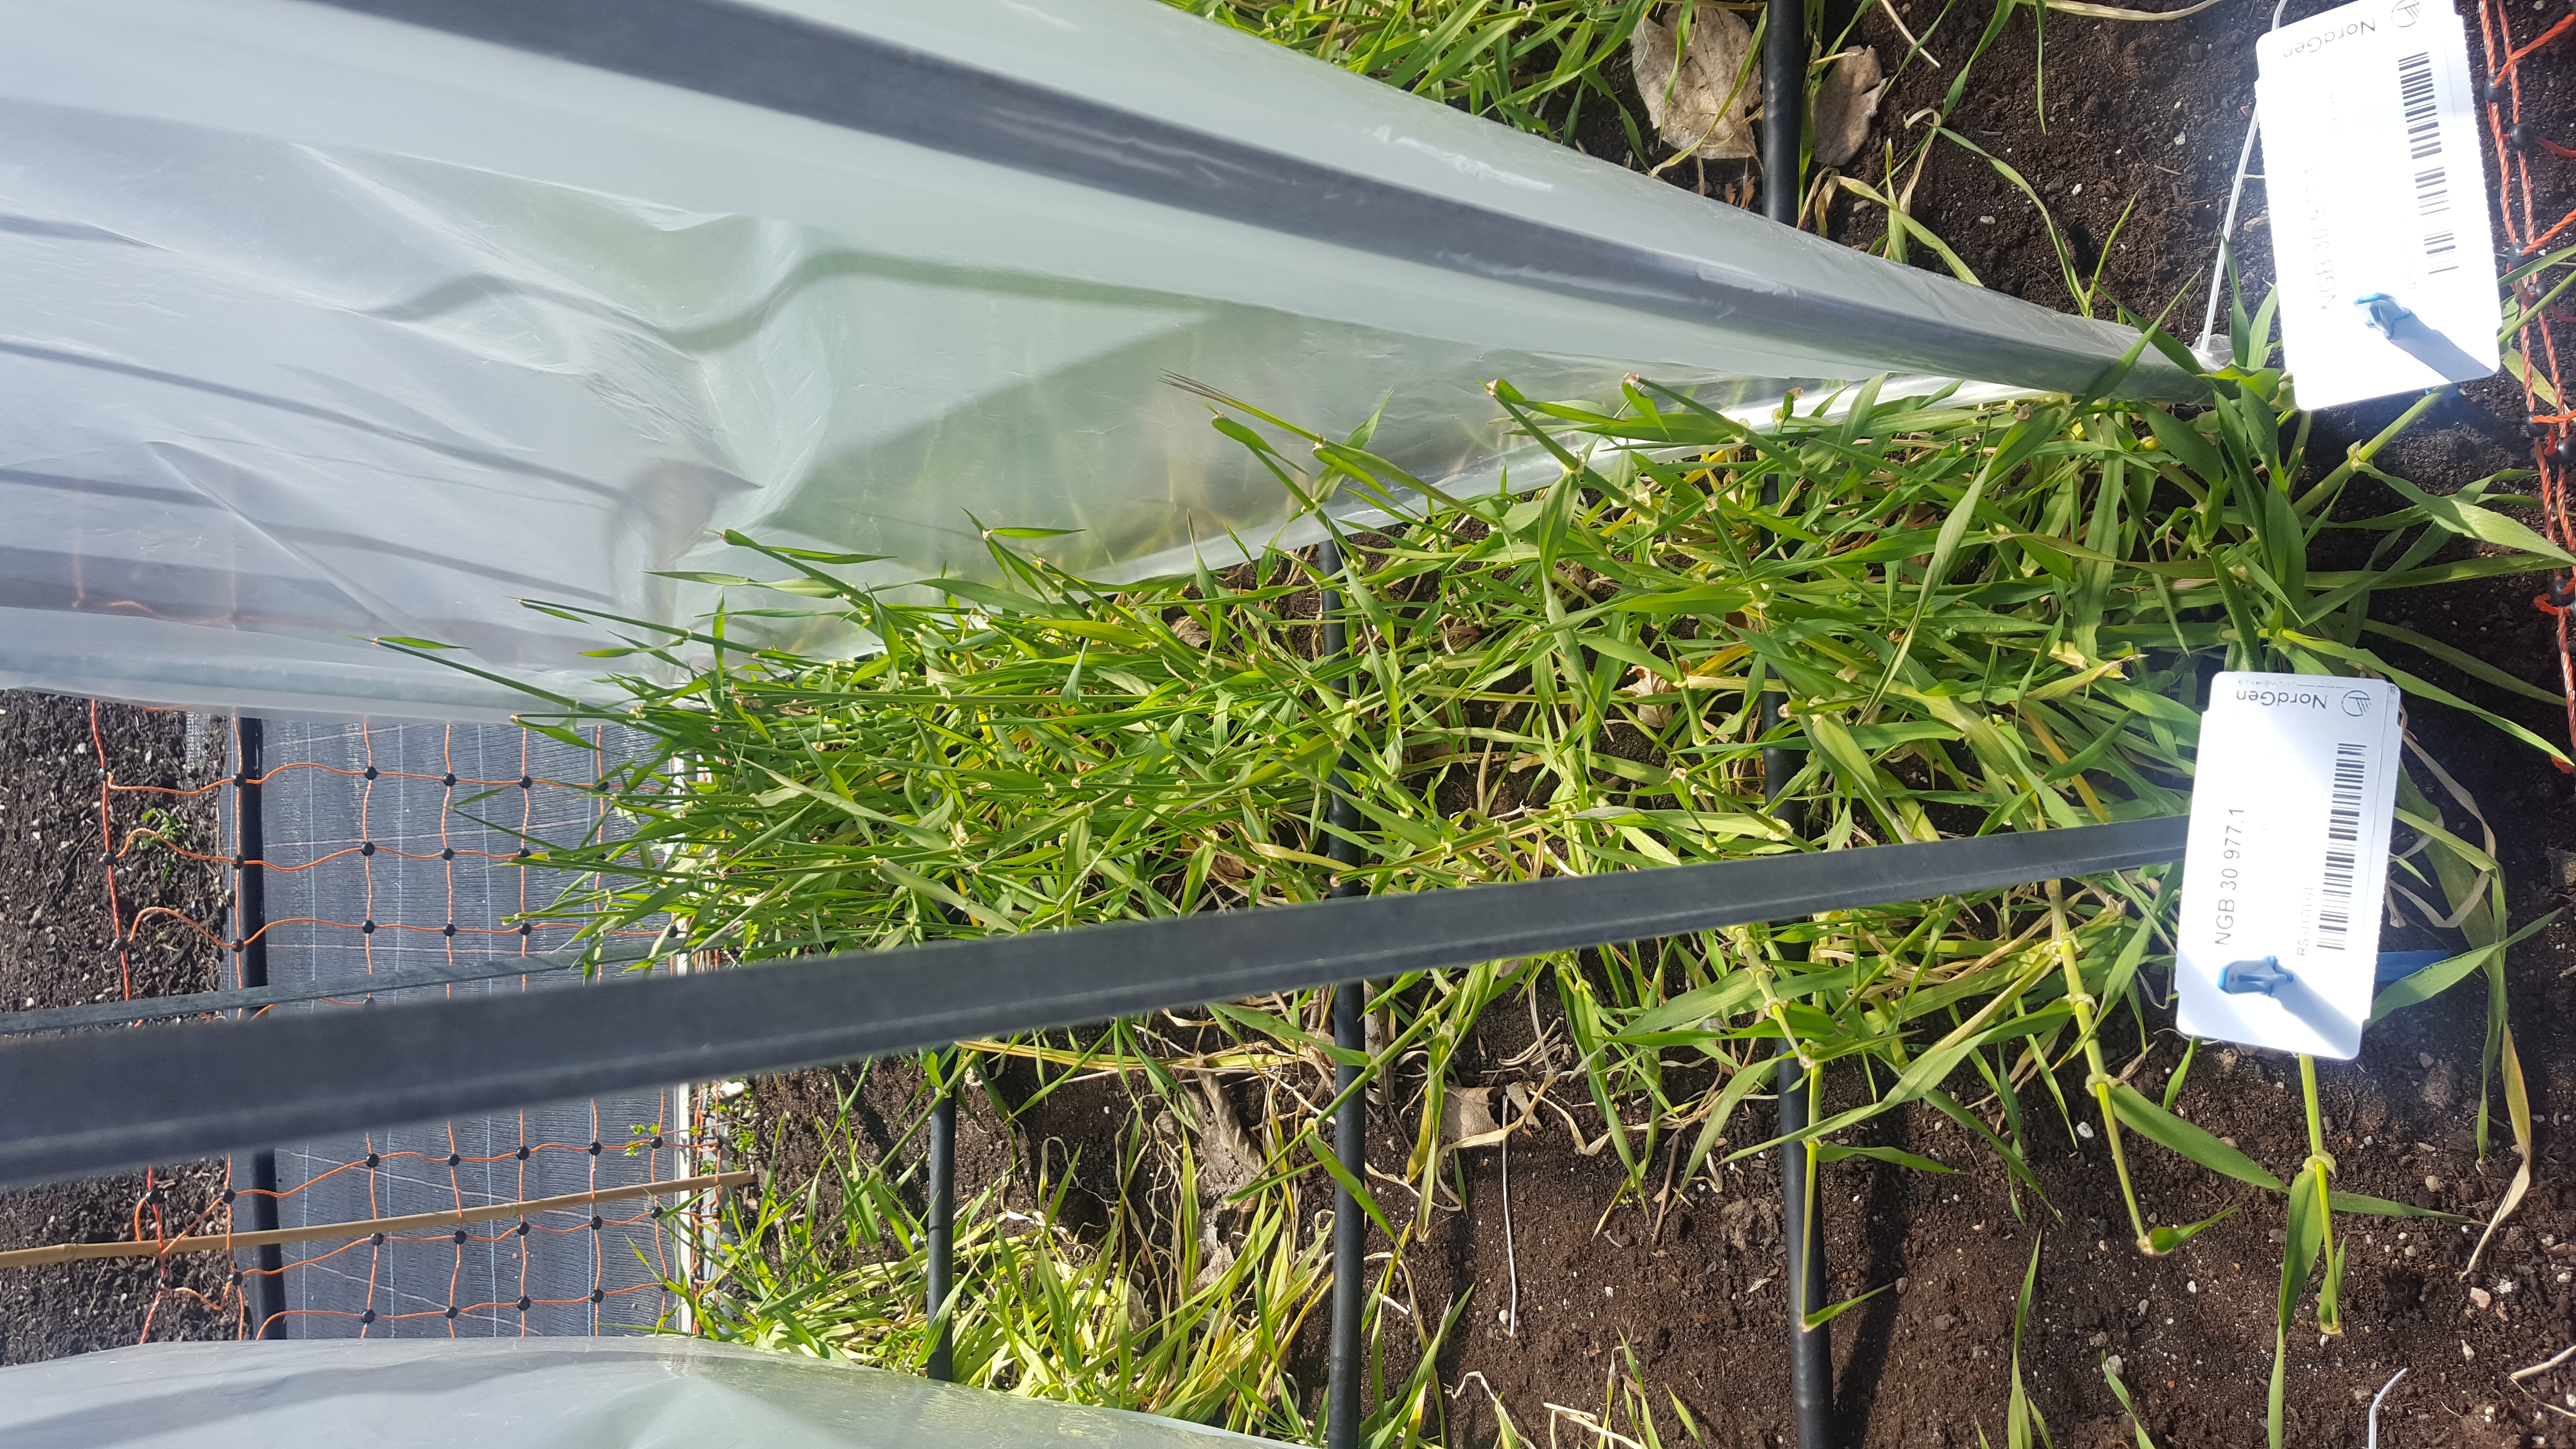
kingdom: Plantae
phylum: Tracheophyta
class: Liliopsida
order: Poales
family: Poaceae
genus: Hordeum
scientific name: Hordeum spontaneum
